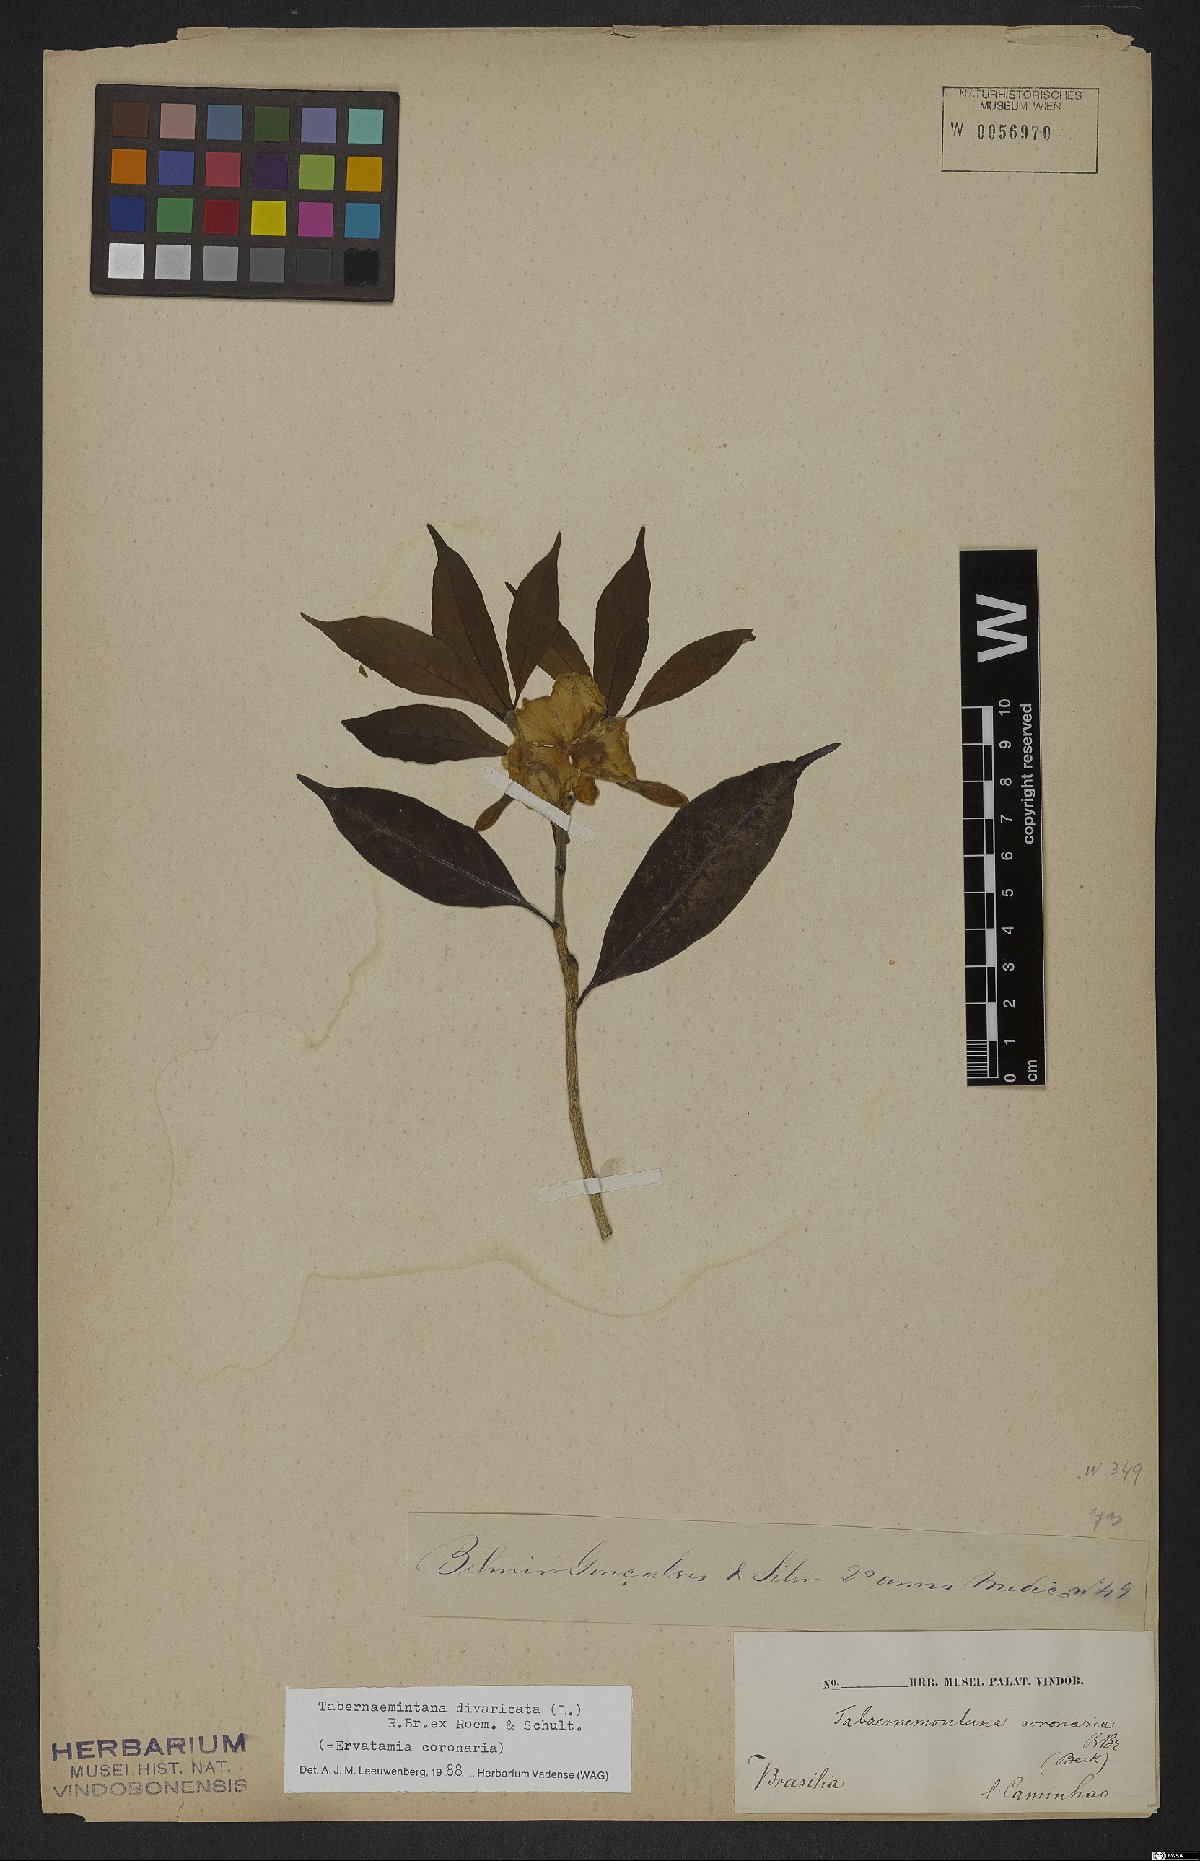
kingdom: Plantae
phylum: Tracheophyta
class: Magnoliopsida
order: Gentianales
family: Apocynaceae
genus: Tabernaemontana
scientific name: Tabernaemontana divaricata
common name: Pinwheelflower
